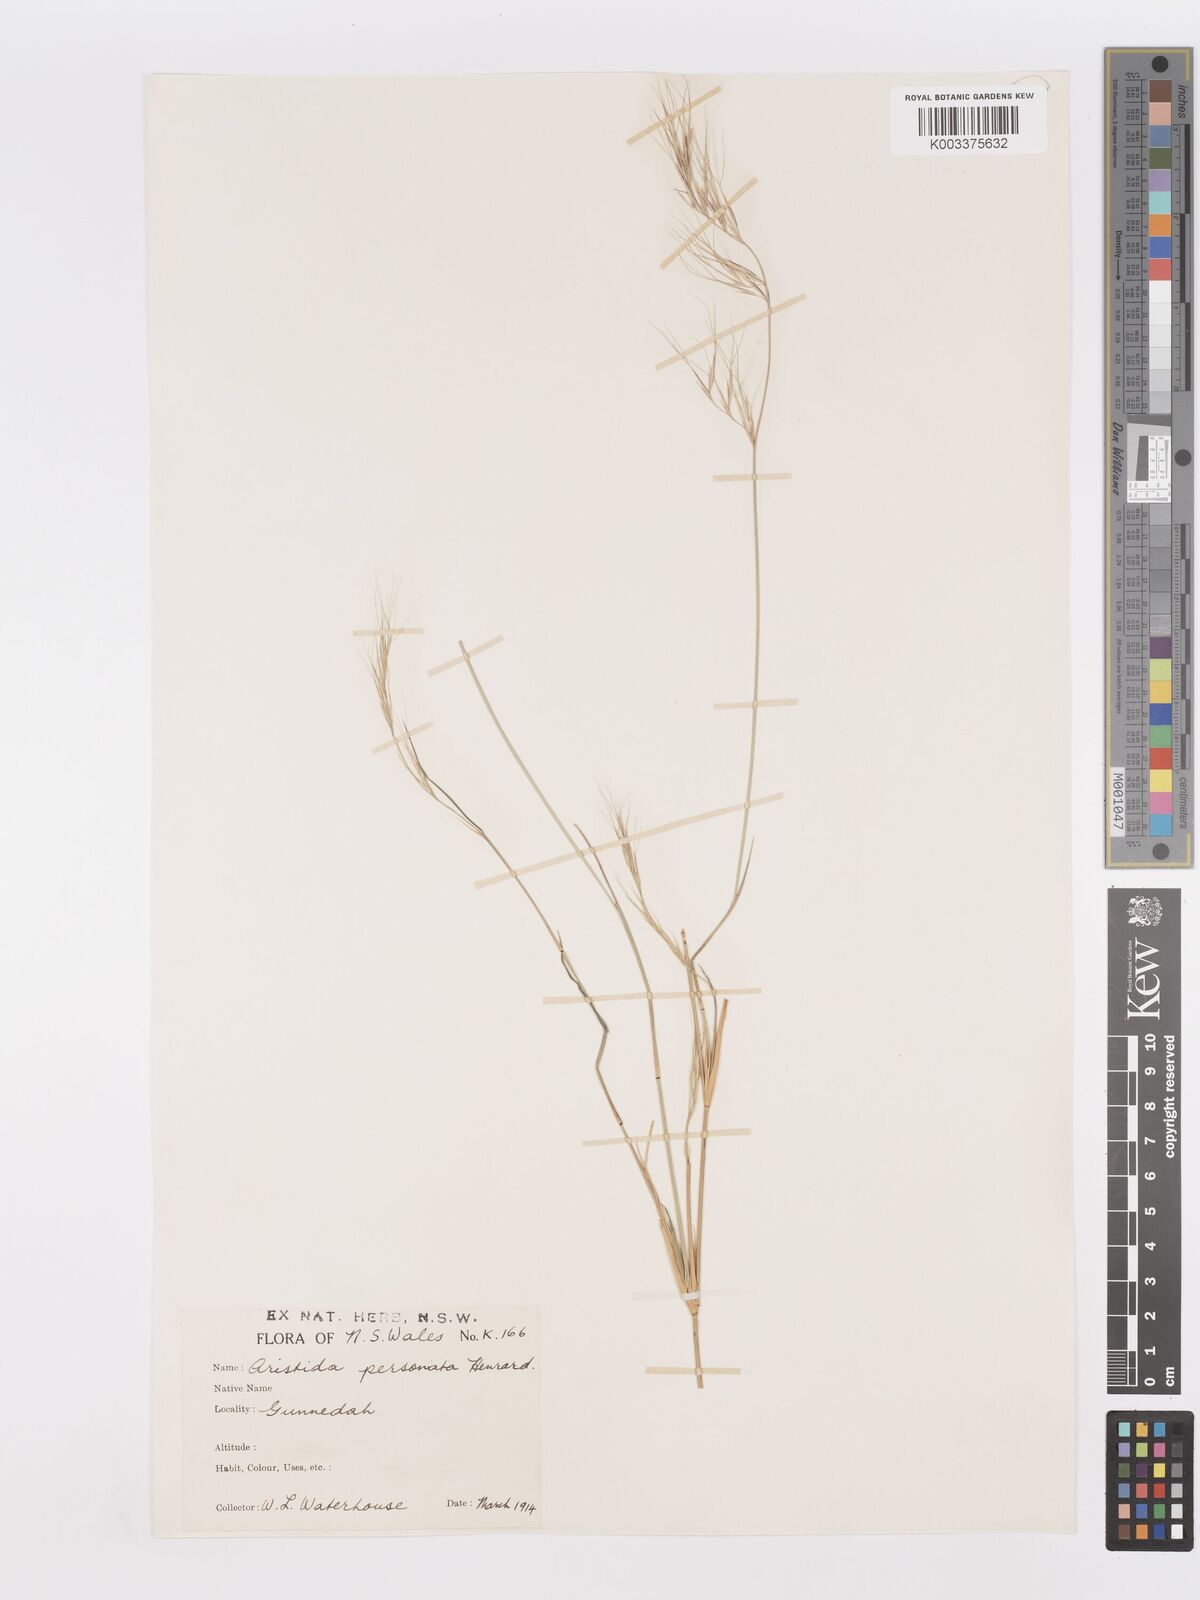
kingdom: Plantae
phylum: Tracheophyta
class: Liliopsida
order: Poales
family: Poaceae
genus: Aristida
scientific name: Aristida personata
